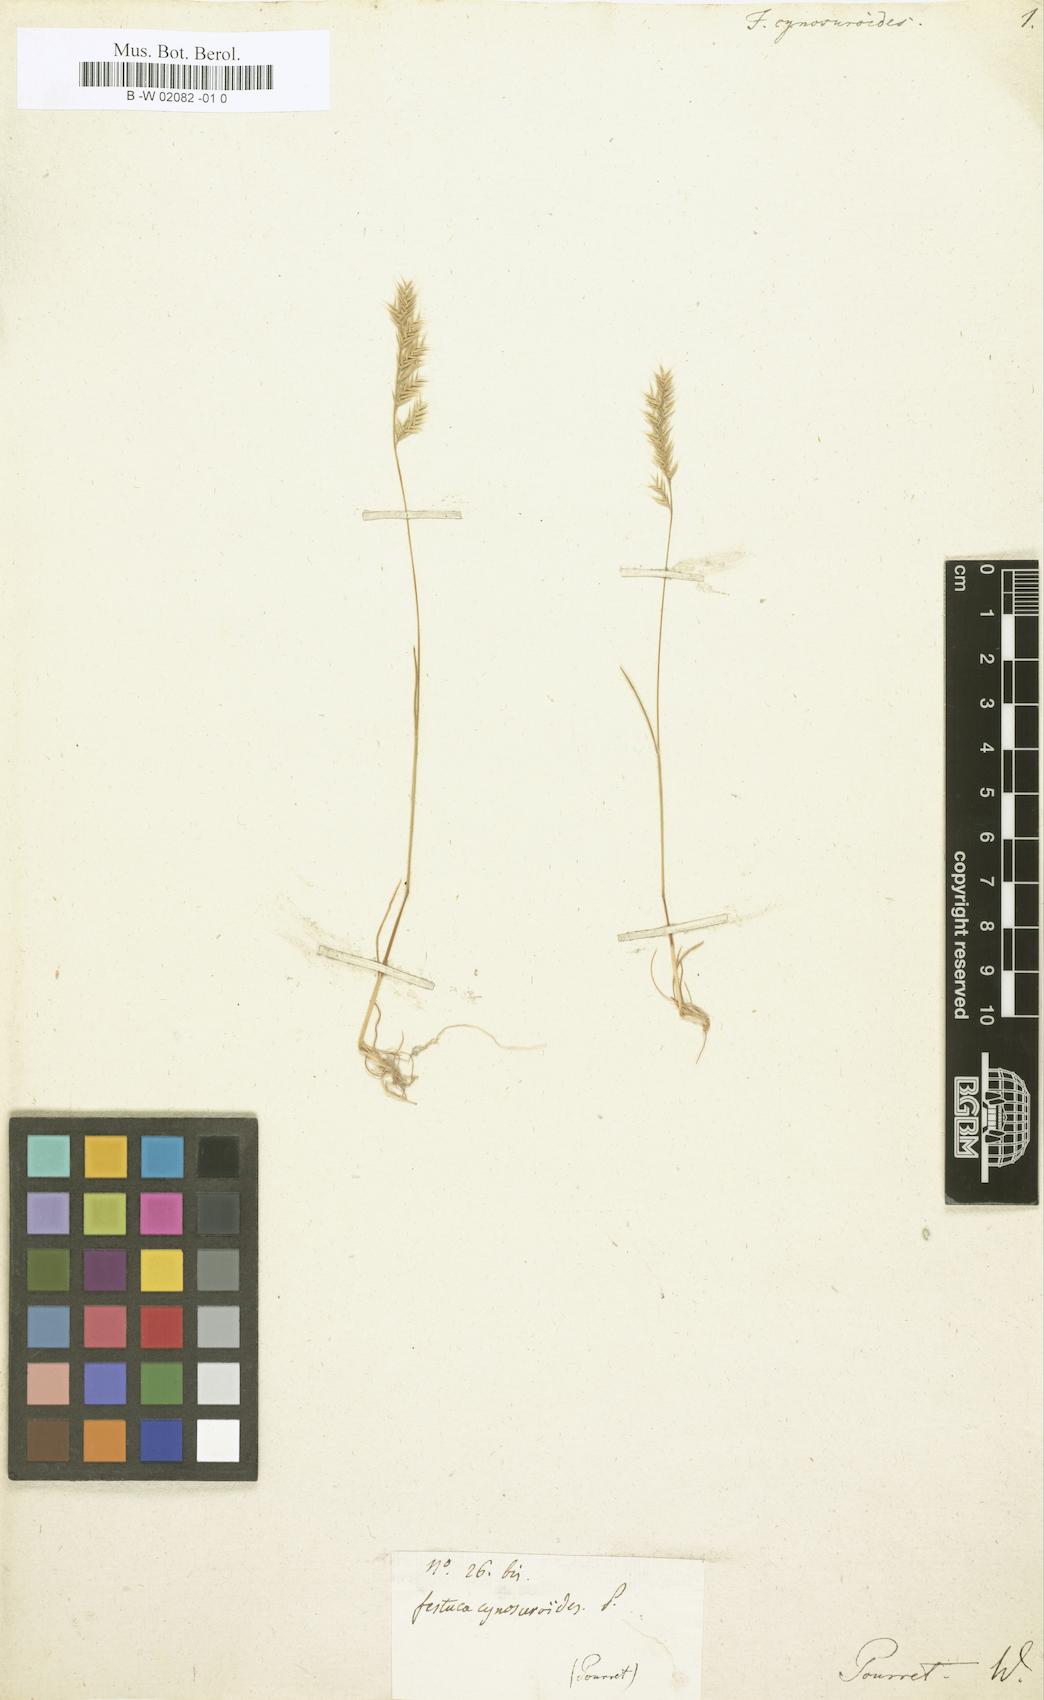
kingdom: Plantae
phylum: Tracheophyta
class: Liliopsida
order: Poales
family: Poaceae
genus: Festuca
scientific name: Festuca cynosuroides
